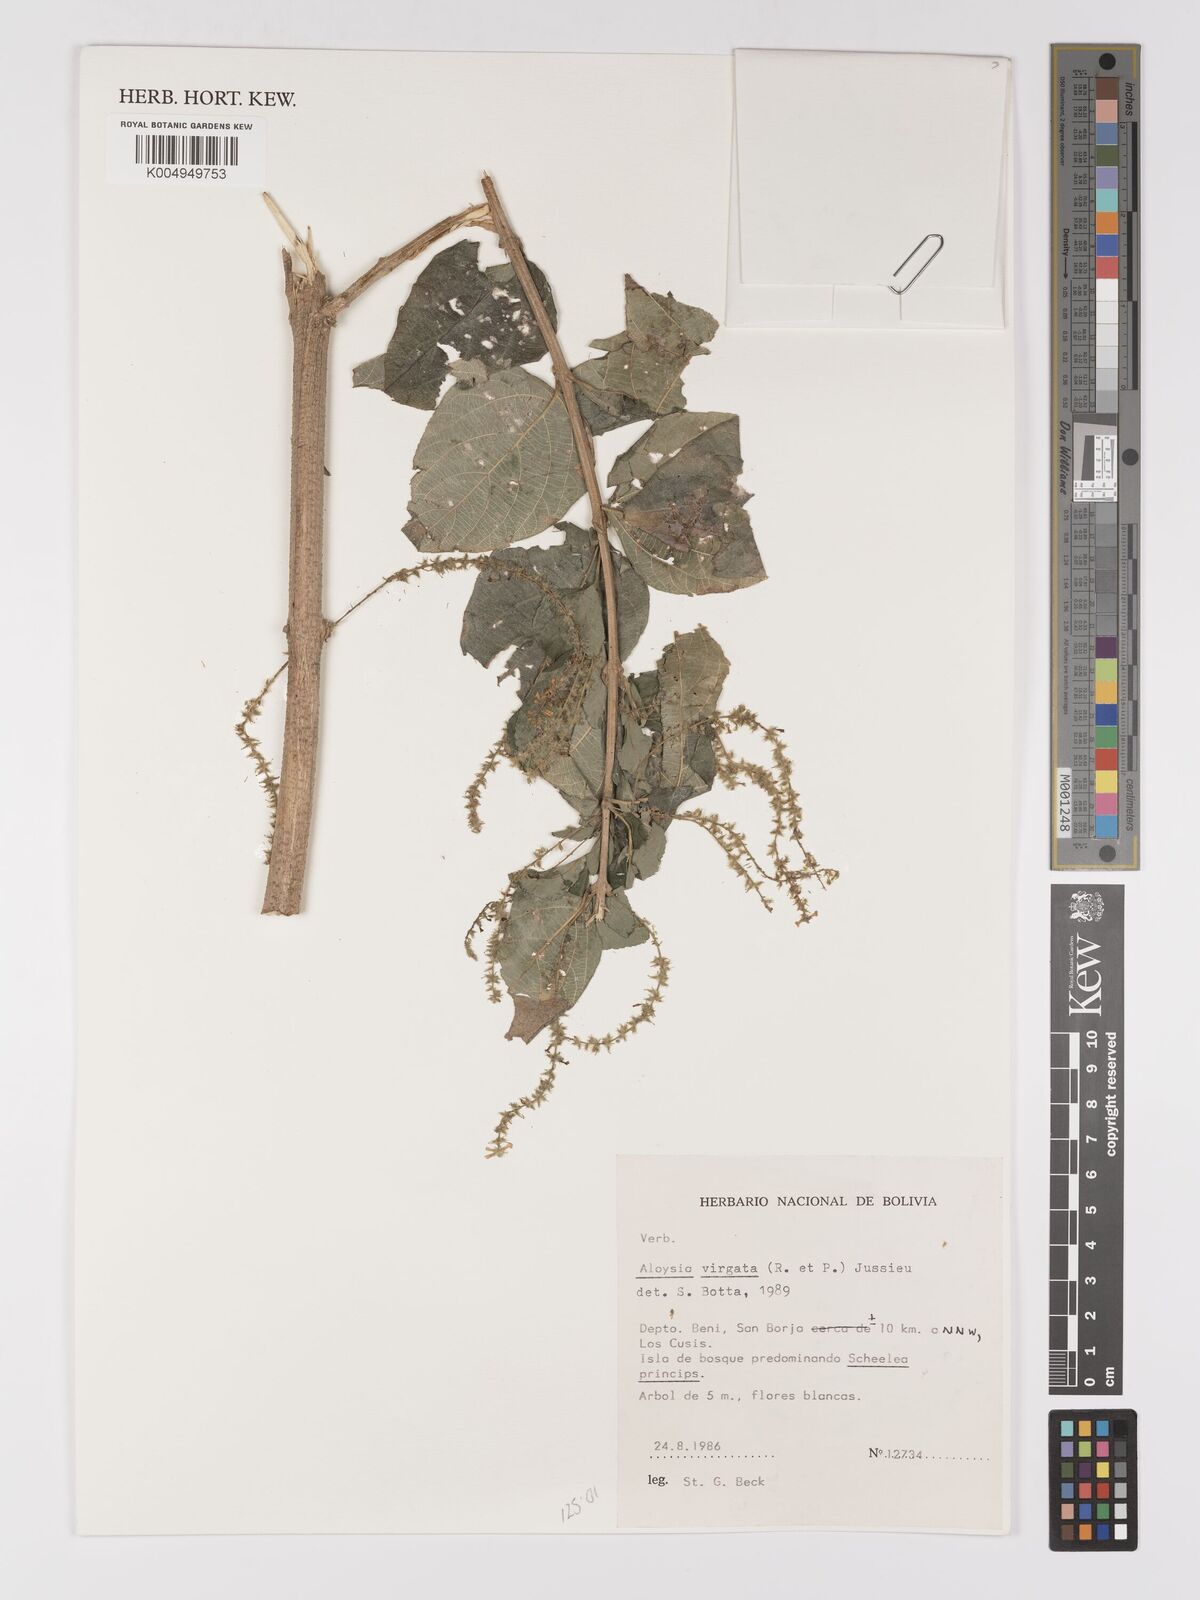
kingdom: Plantae
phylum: Tracheophyta
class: Magnoliopsida
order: Lamiales
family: Verbenaceae
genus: Aloysia
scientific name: Aloysia virgata
